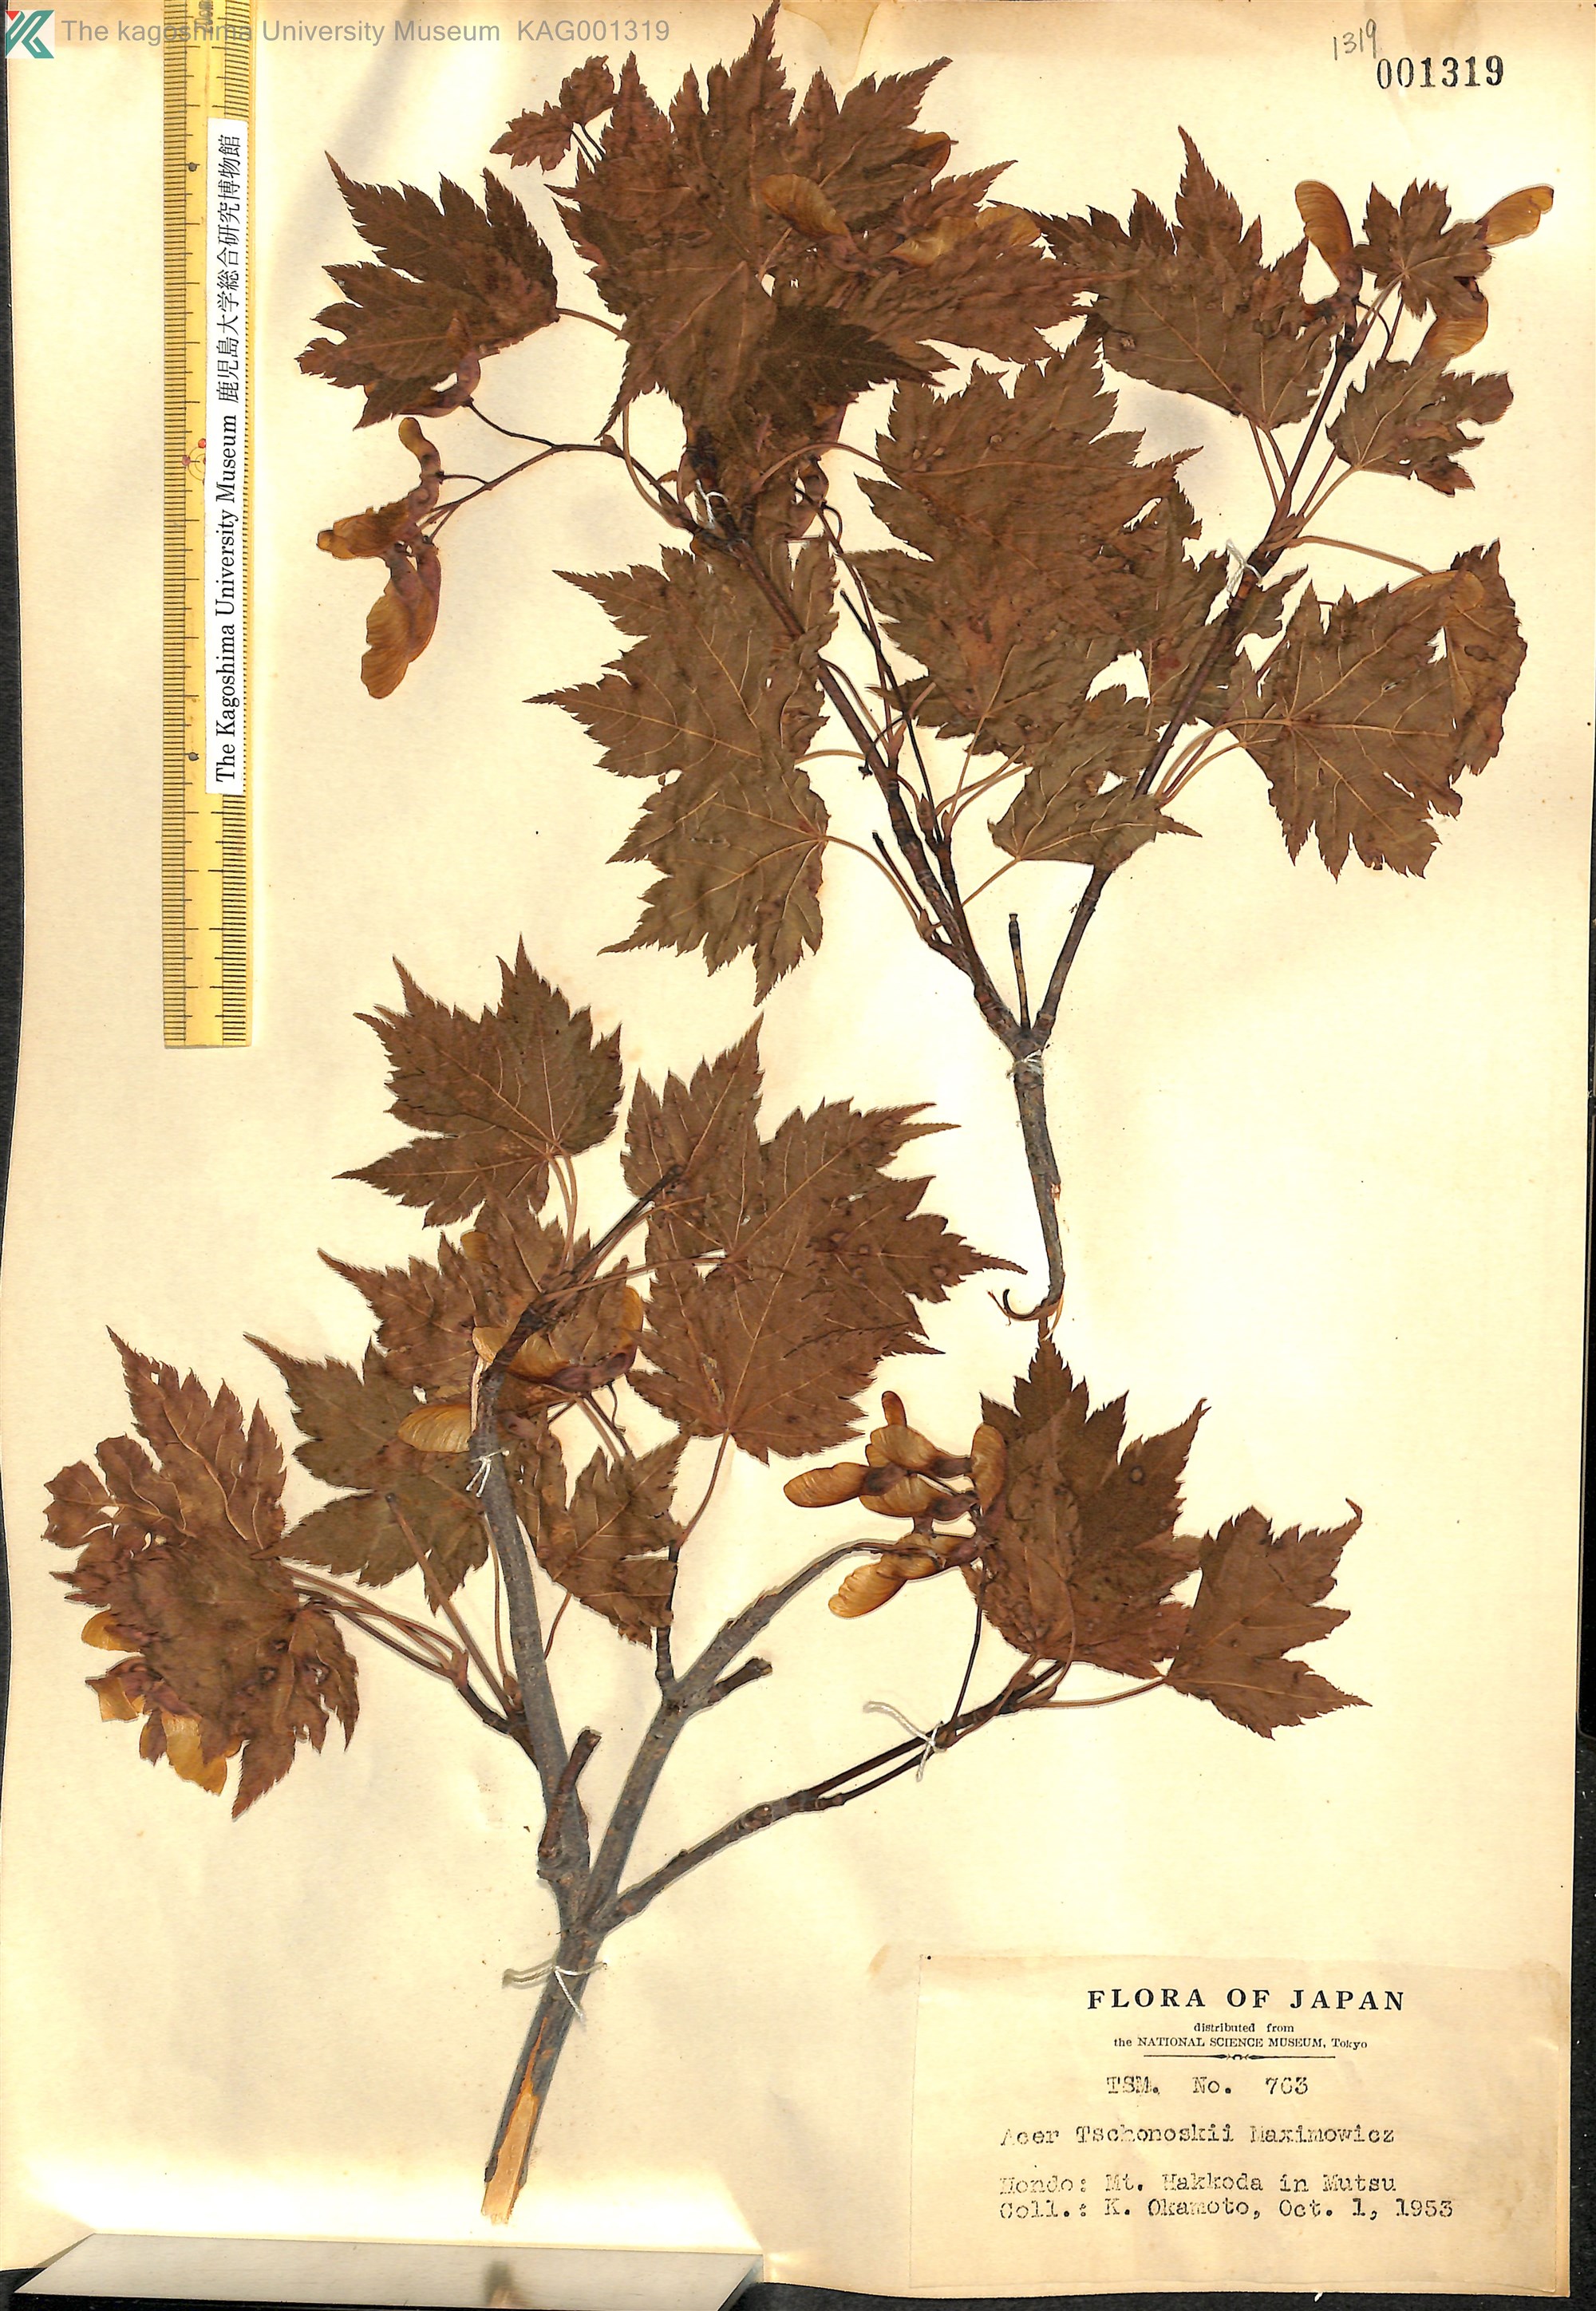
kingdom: Plantae
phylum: Tracheophyta
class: Magnoliopsida
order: Sapindales
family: Sapindaceae
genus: Acer
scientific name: Acer tschonoskii
